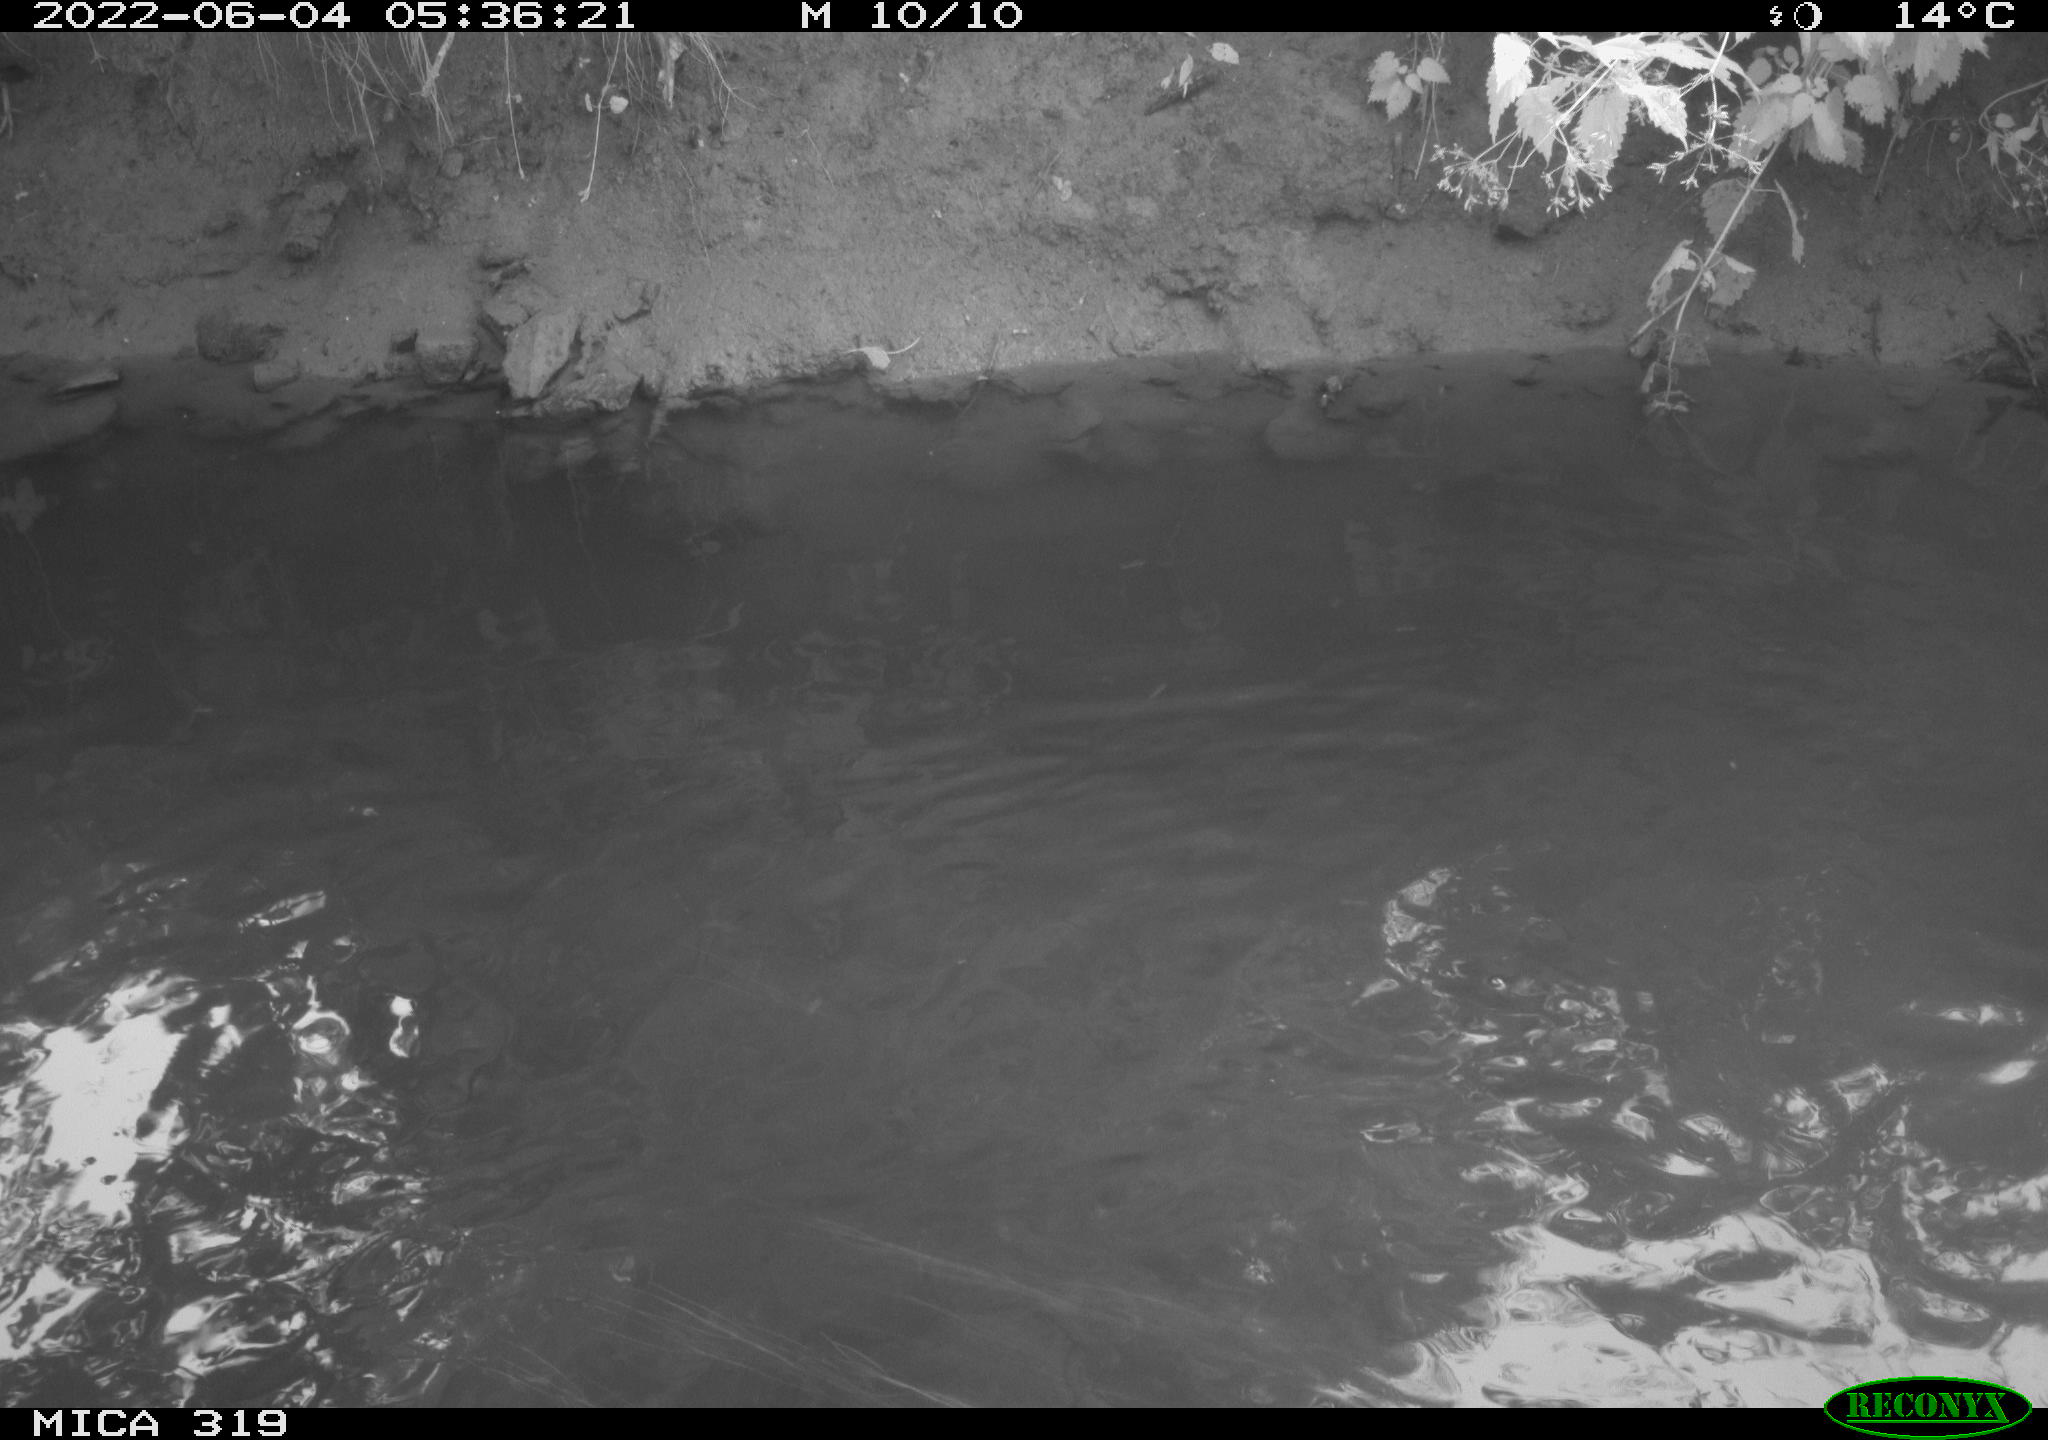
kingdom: Animalia
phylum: Chordata
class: Aves
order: Anseriformes
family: Anatidae
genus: Anas
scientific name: Anas
